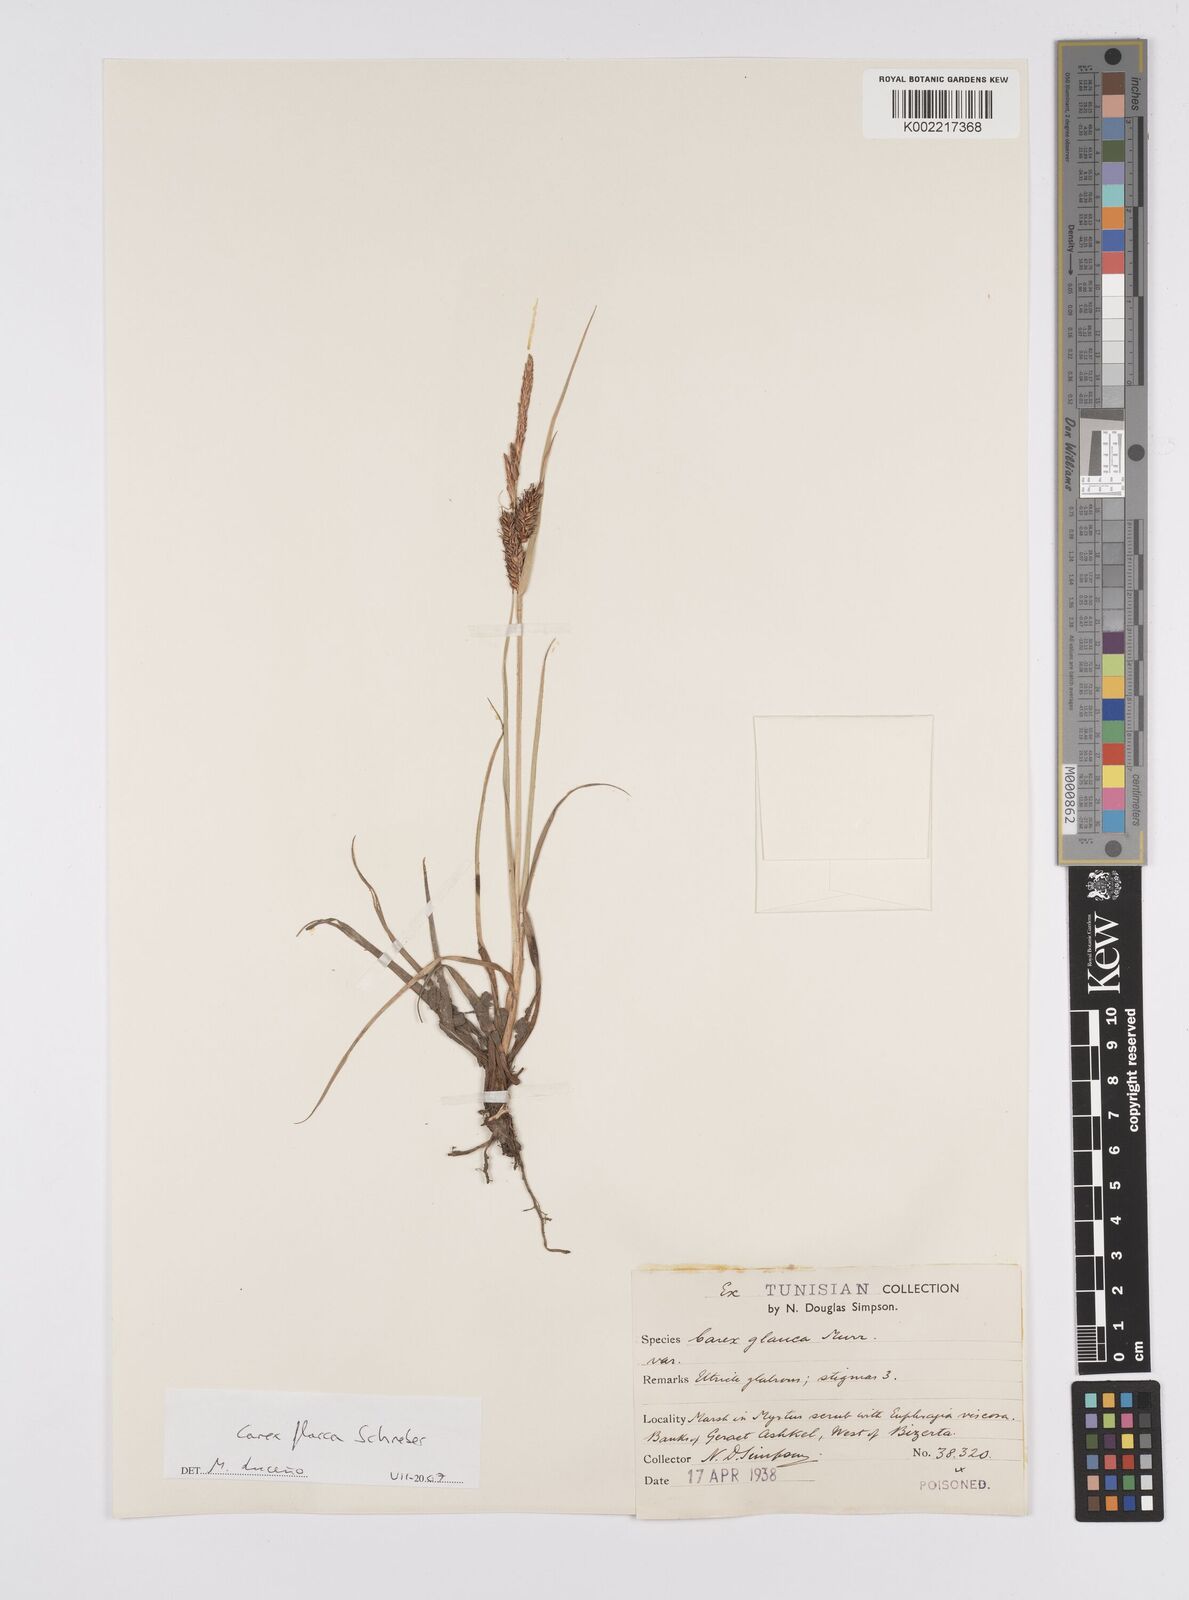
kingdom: Plantae
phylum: Tracheophyta
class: Liliopsida
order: Poales
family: Cyperaceae
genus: Carex
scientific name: Carex flacca
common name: Glaucous sedge
